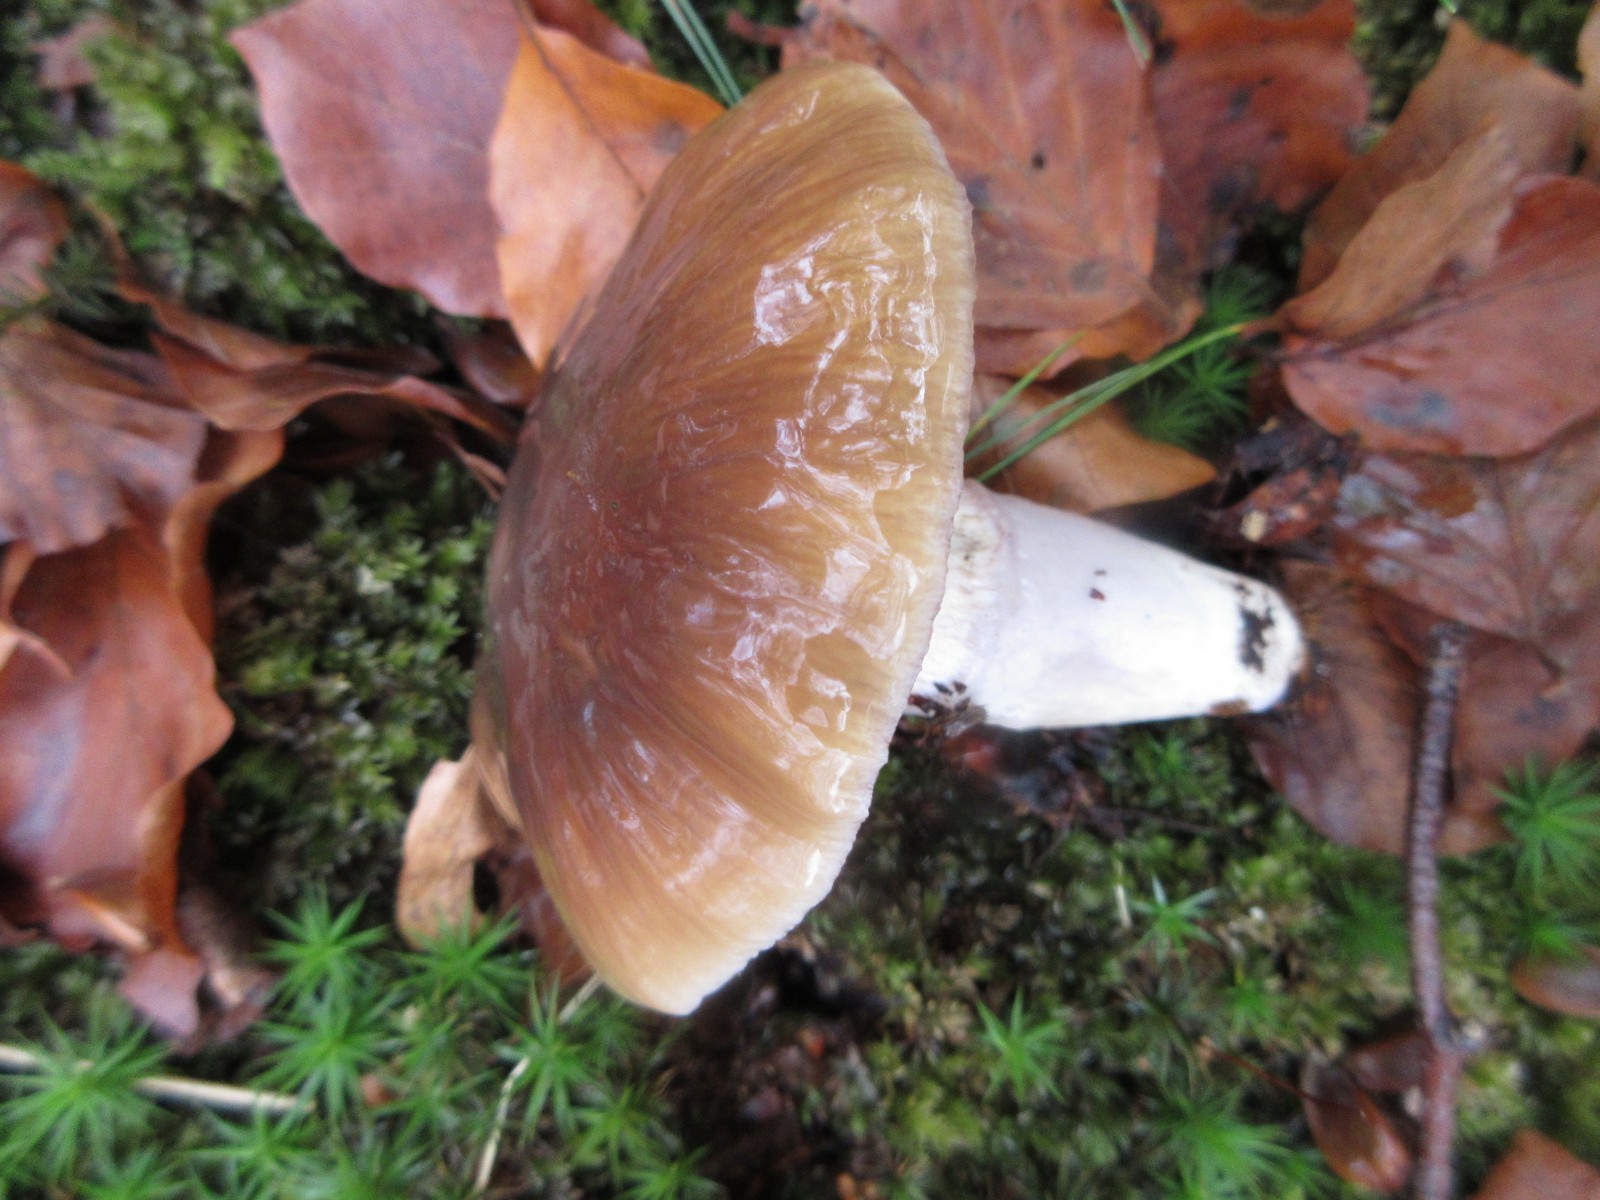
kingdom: Fungi
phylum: Basidiomycota
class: Agaricomycetes
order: Agaricales
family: Cortinariaceae
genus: Cortinarius
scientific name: Cortinarius elatior
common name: høj slørhat
